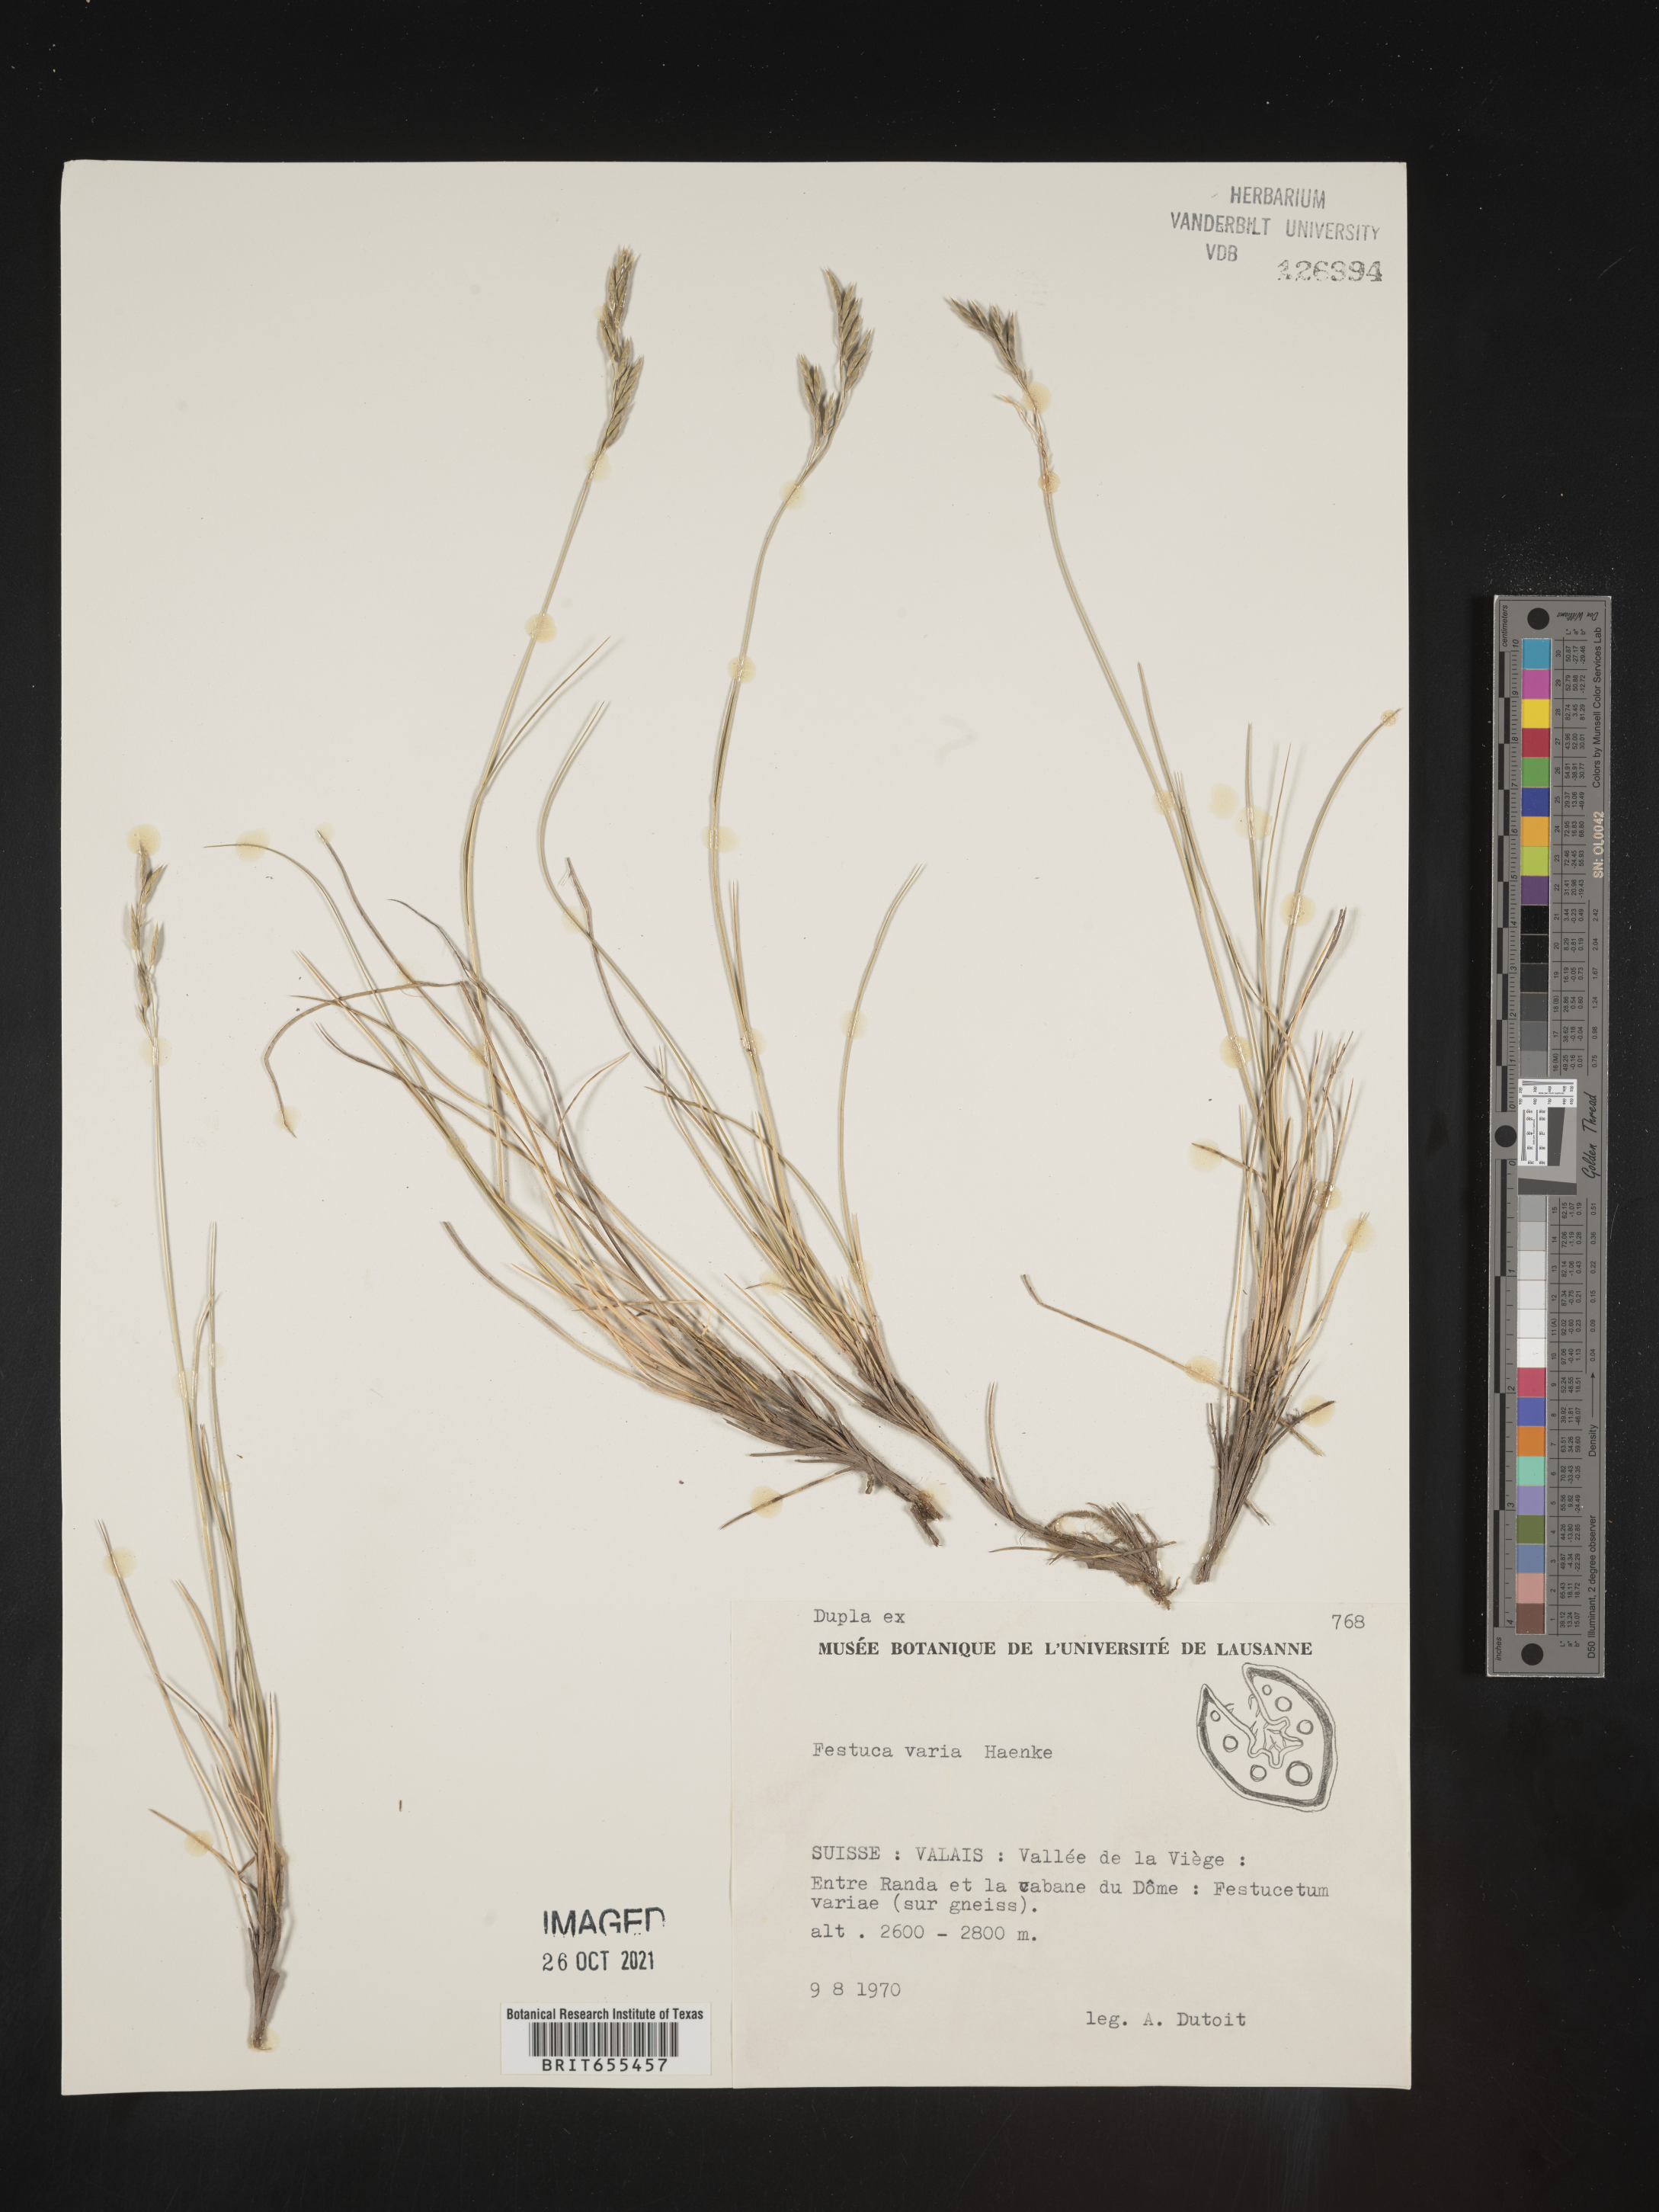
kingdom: Plantae
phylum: Tracheophyta
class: Liliopsida
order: Poales
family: Poaceae
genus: Festuca
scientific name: Festuca
